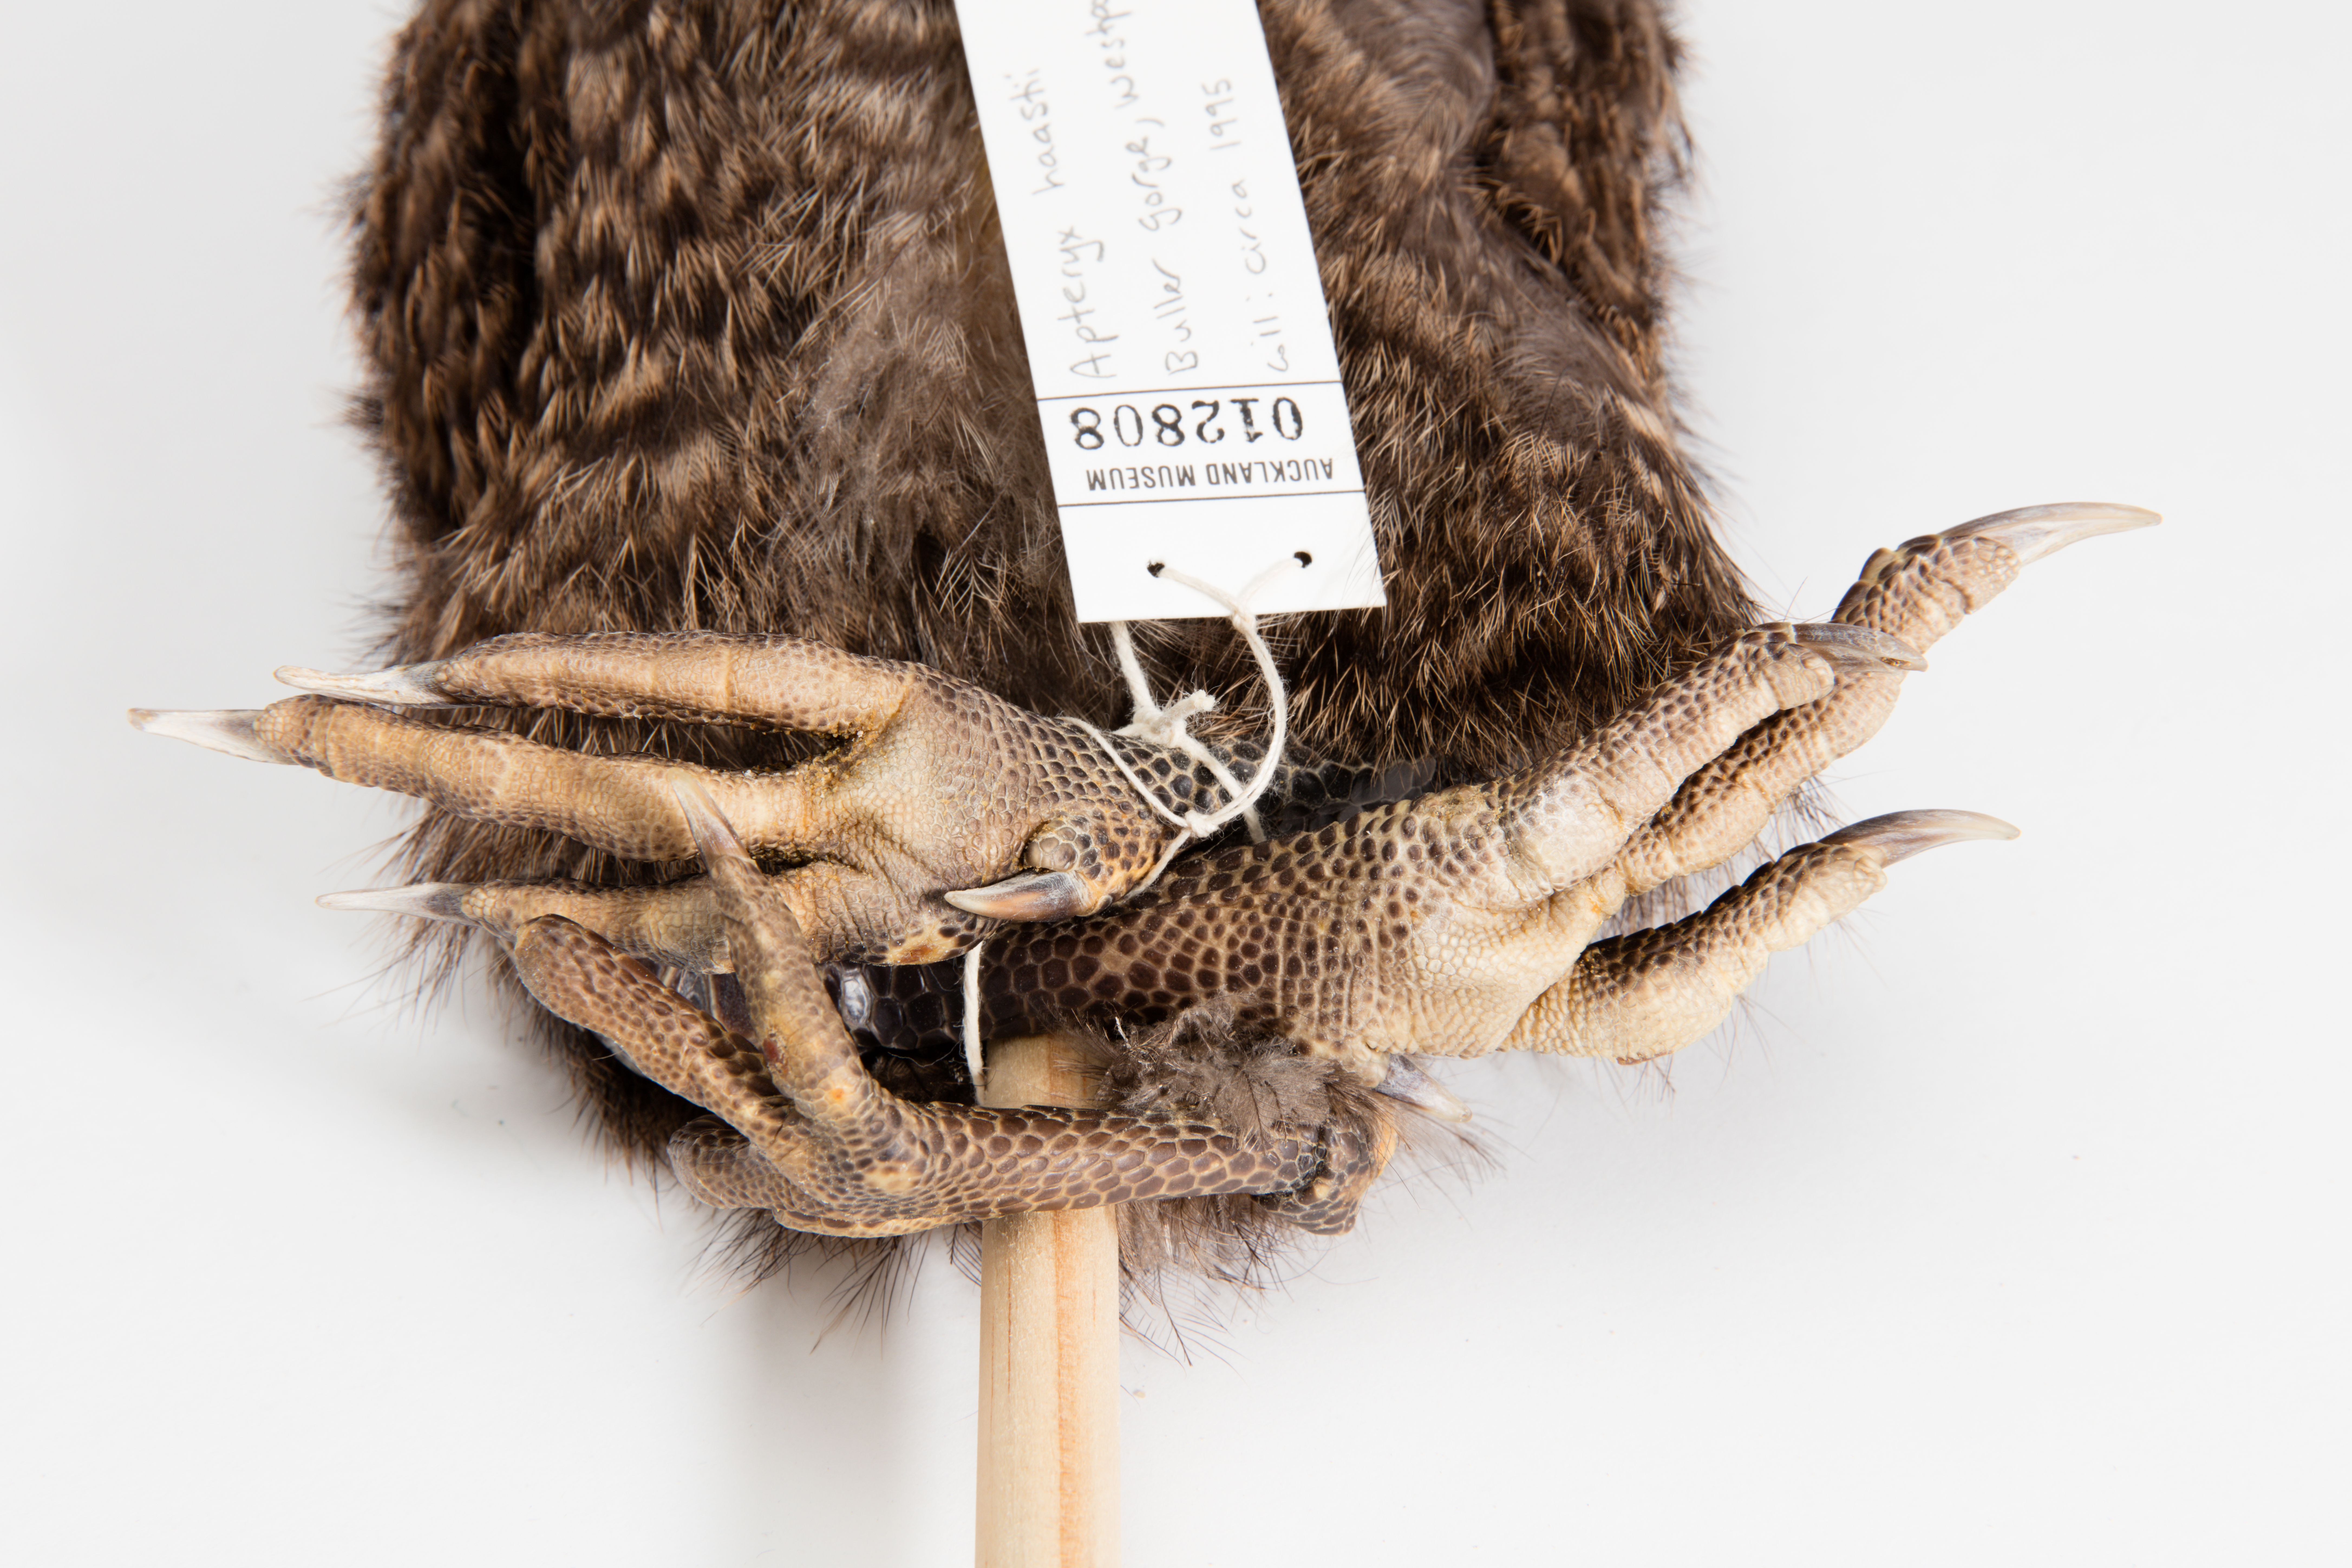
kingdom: Animalia
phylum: Chordata
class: Aves
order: Apterygiformes
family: Apterygidae
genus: Apteryx
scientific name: Apteryx
